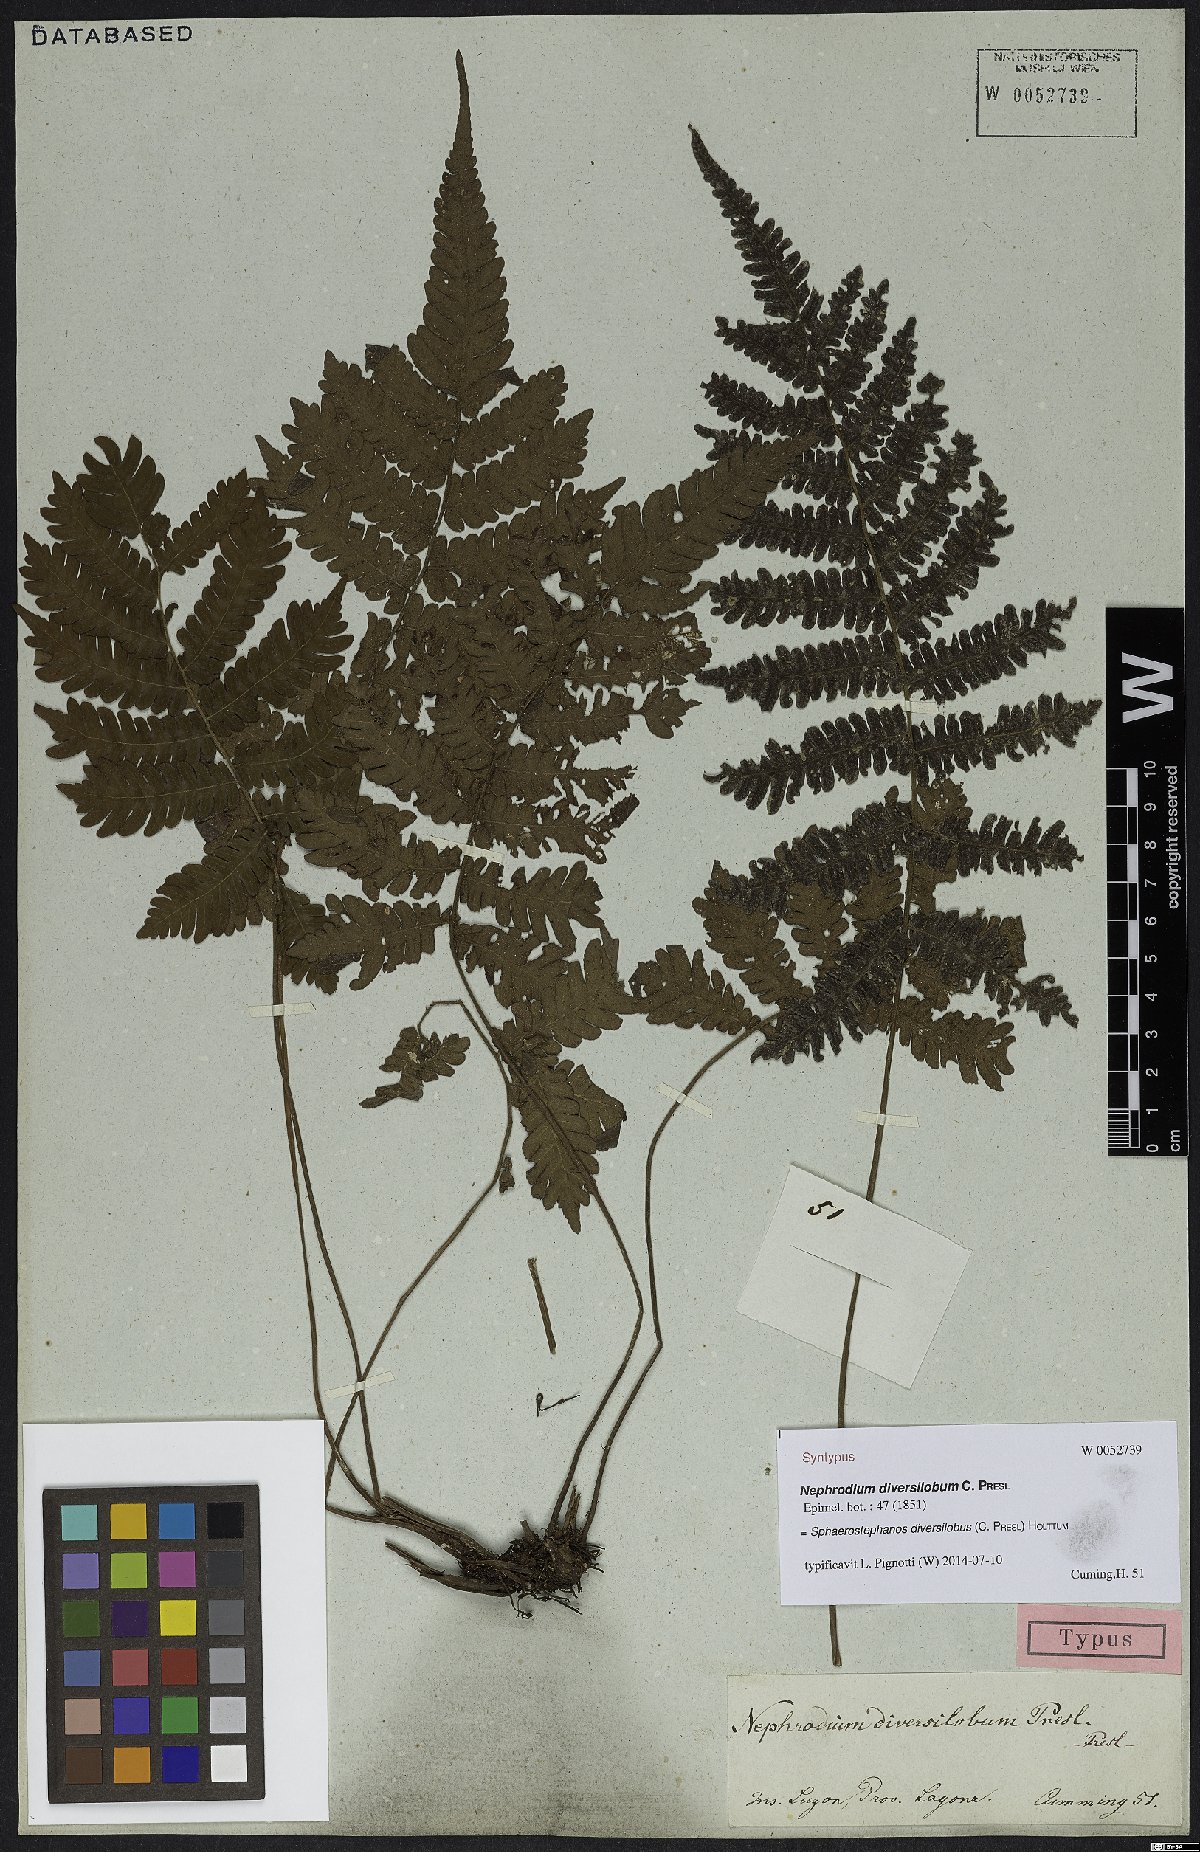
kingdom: Plantae
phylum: Tracheophyta
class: Polypodiopsida
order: Polypodiales
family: Thelypteridaceae
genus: Sphaerostephanos
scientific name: Sphaerostephanos diversilobus
